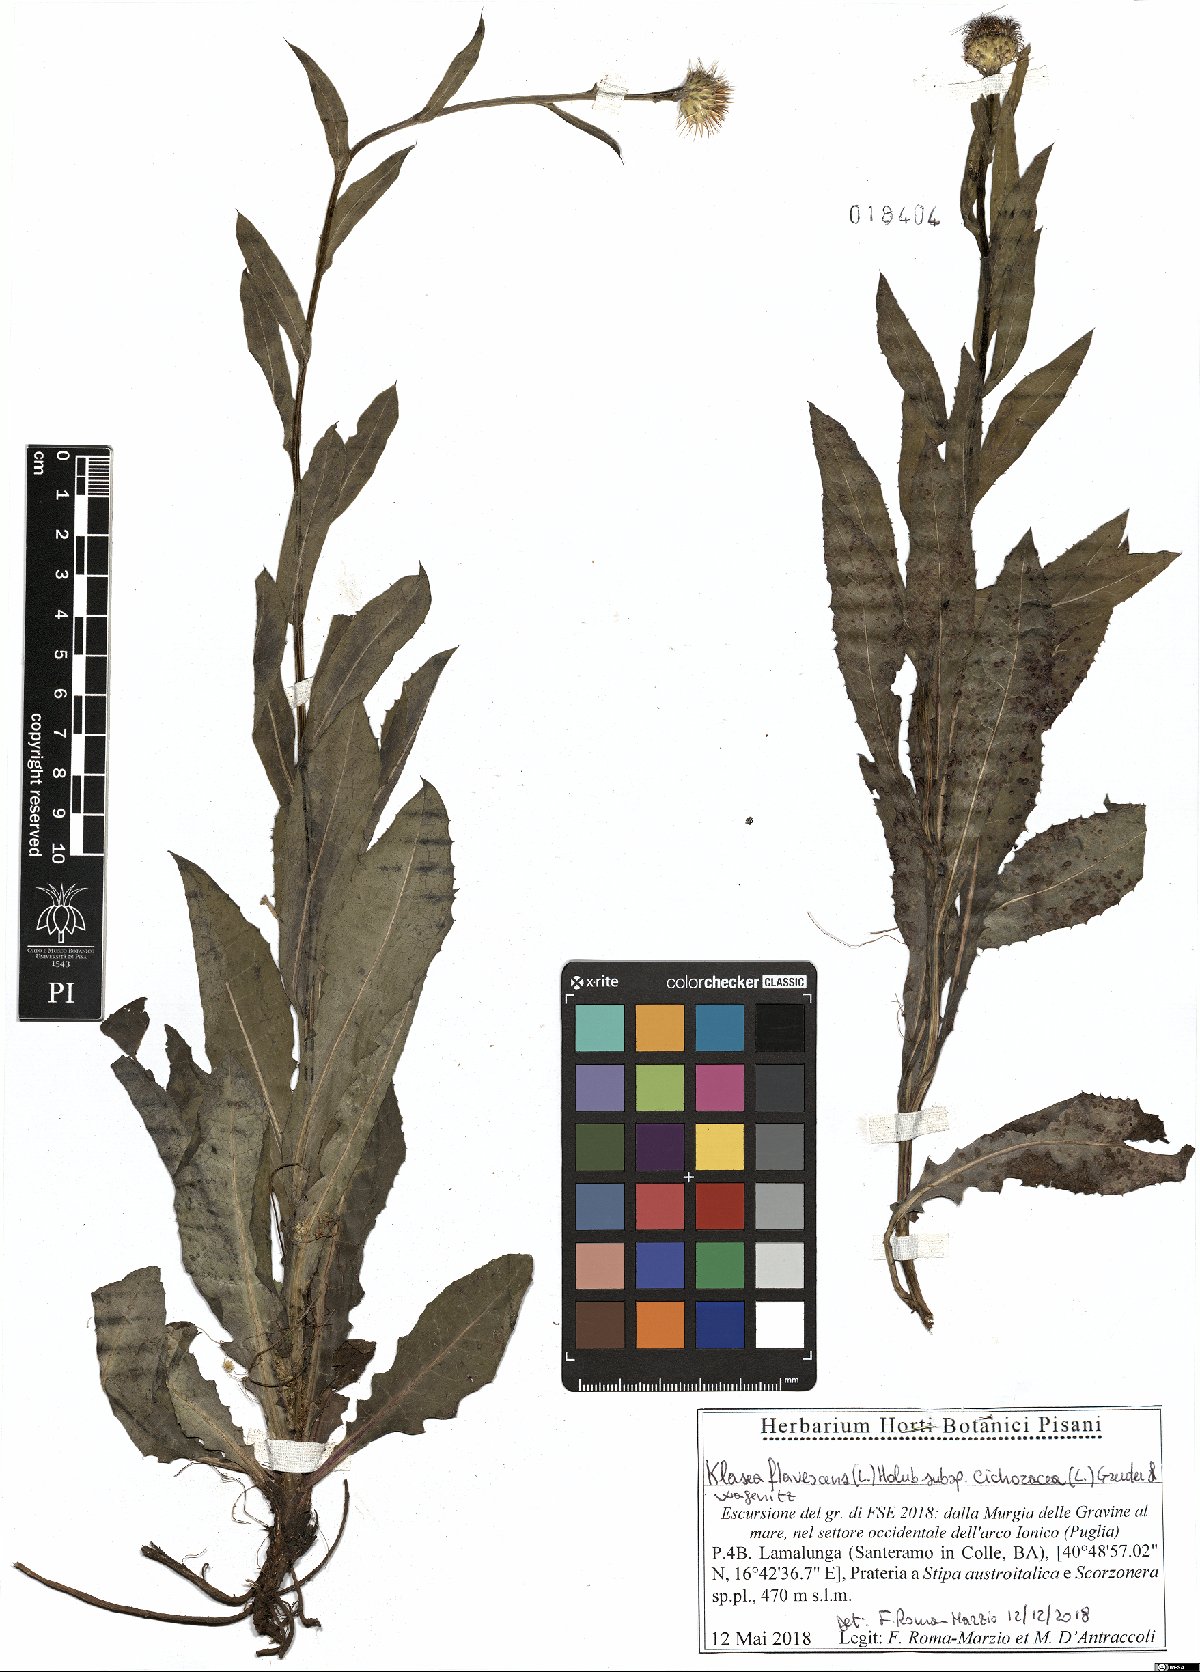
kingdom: Plantae
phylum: Tracheophyta
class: Magnoliopsida
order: Asterales
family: Asteraceae
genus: Klasea
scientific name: Klasea flavescens
